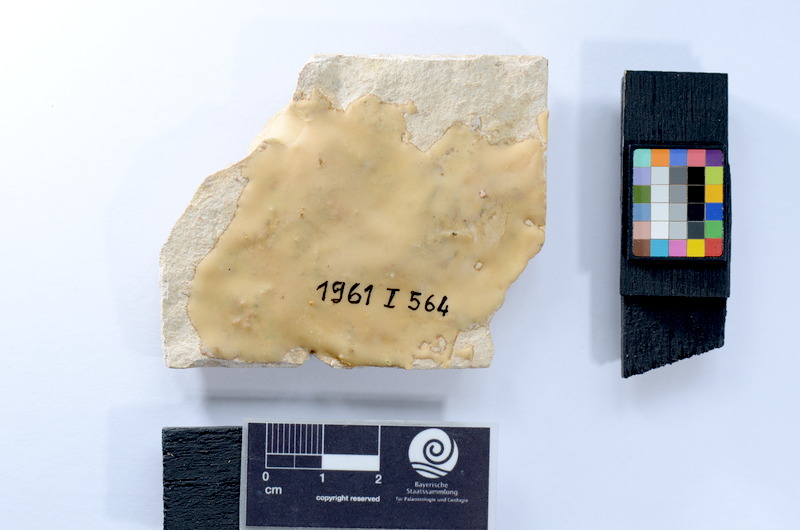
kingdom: Animalia
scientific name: Animalia
